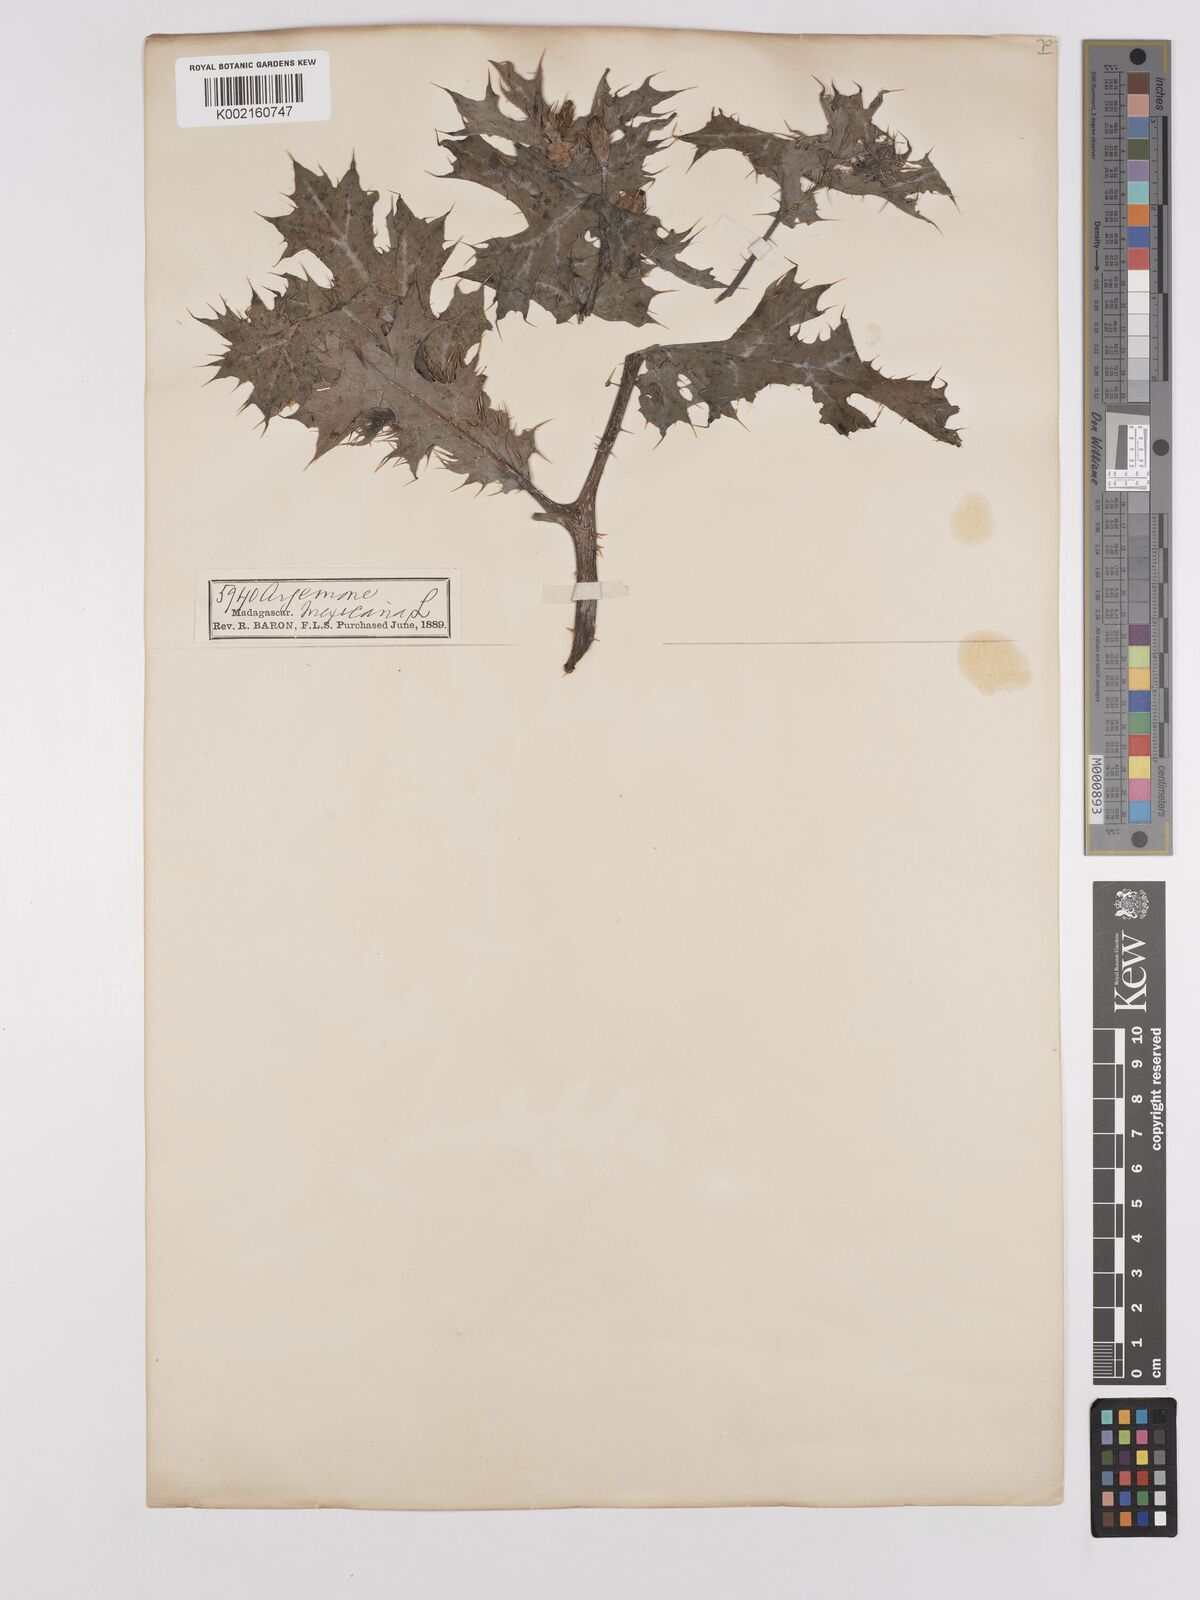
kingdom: Plantae
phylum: Tracheophyta
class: Magnoliopsida
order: Ranunculales
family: Papaveraceae
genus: Argemone
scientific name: Argemone mexicana
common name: Mexican poppy
